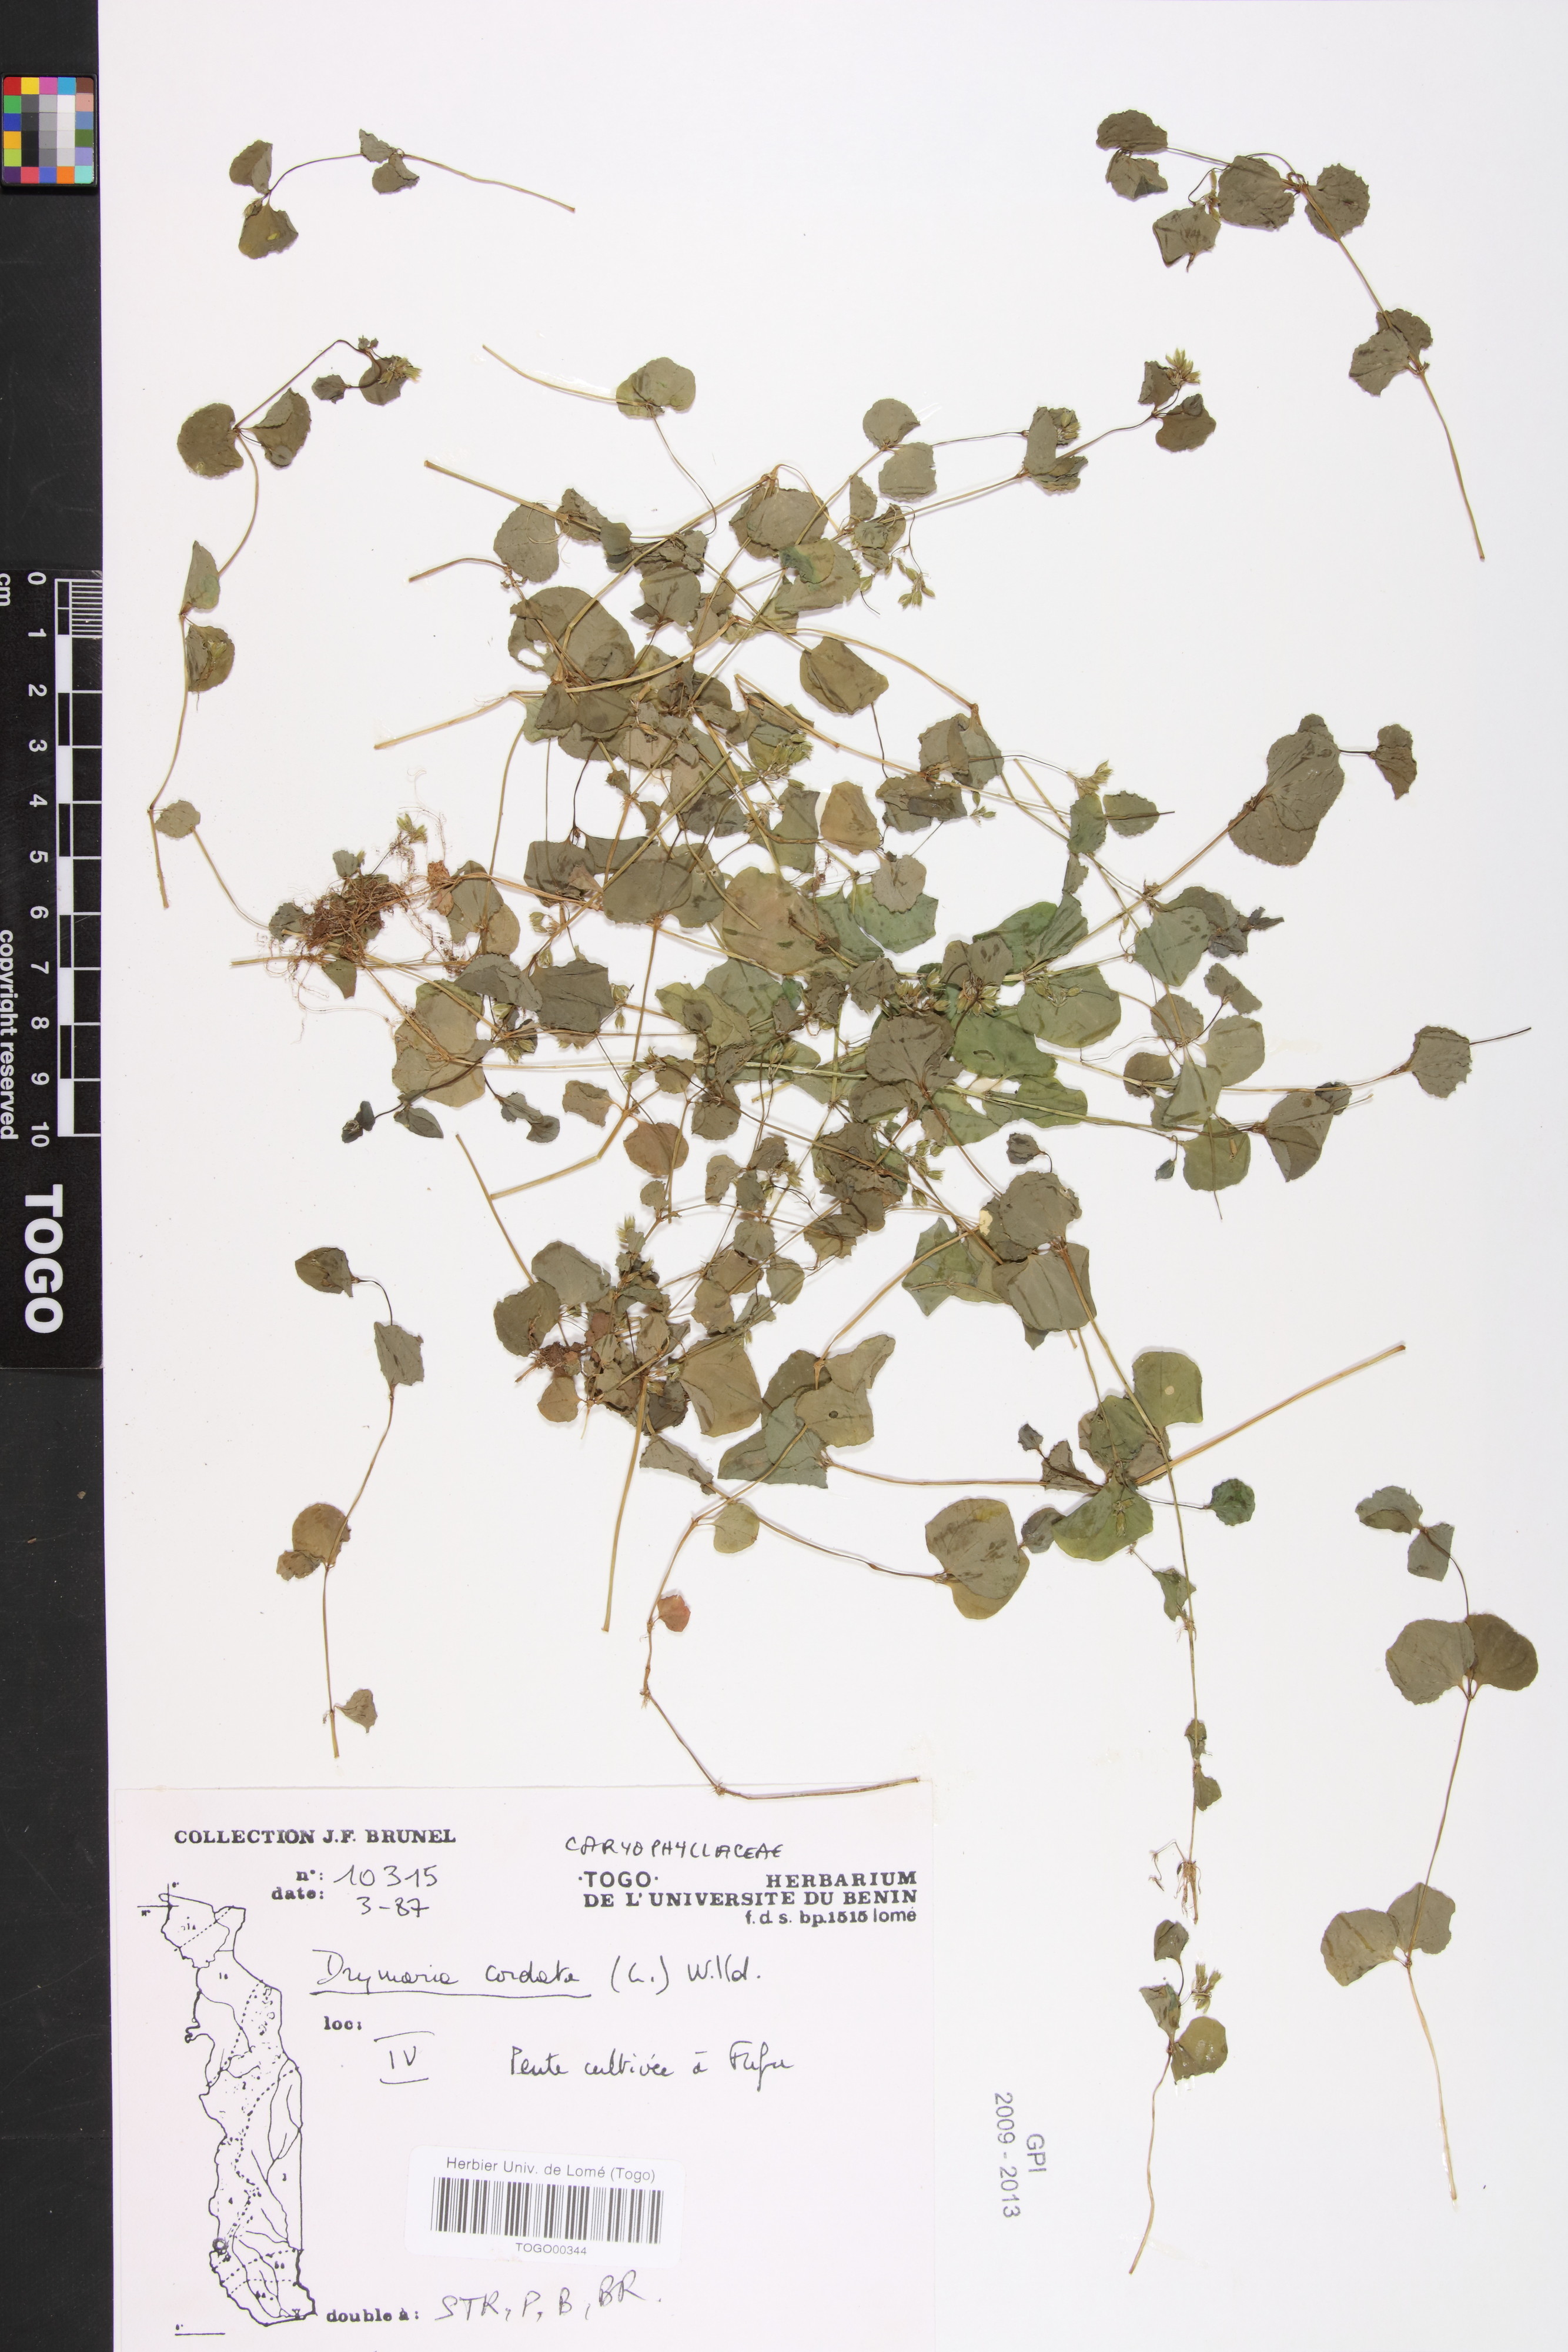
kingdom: Plantae
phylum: Tracheophyta
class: Magnoliopsida
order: Caryophyllales
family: Caryophyllaceae
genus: Drymaria
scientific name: Drymaria cordata
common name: Whitesnow
